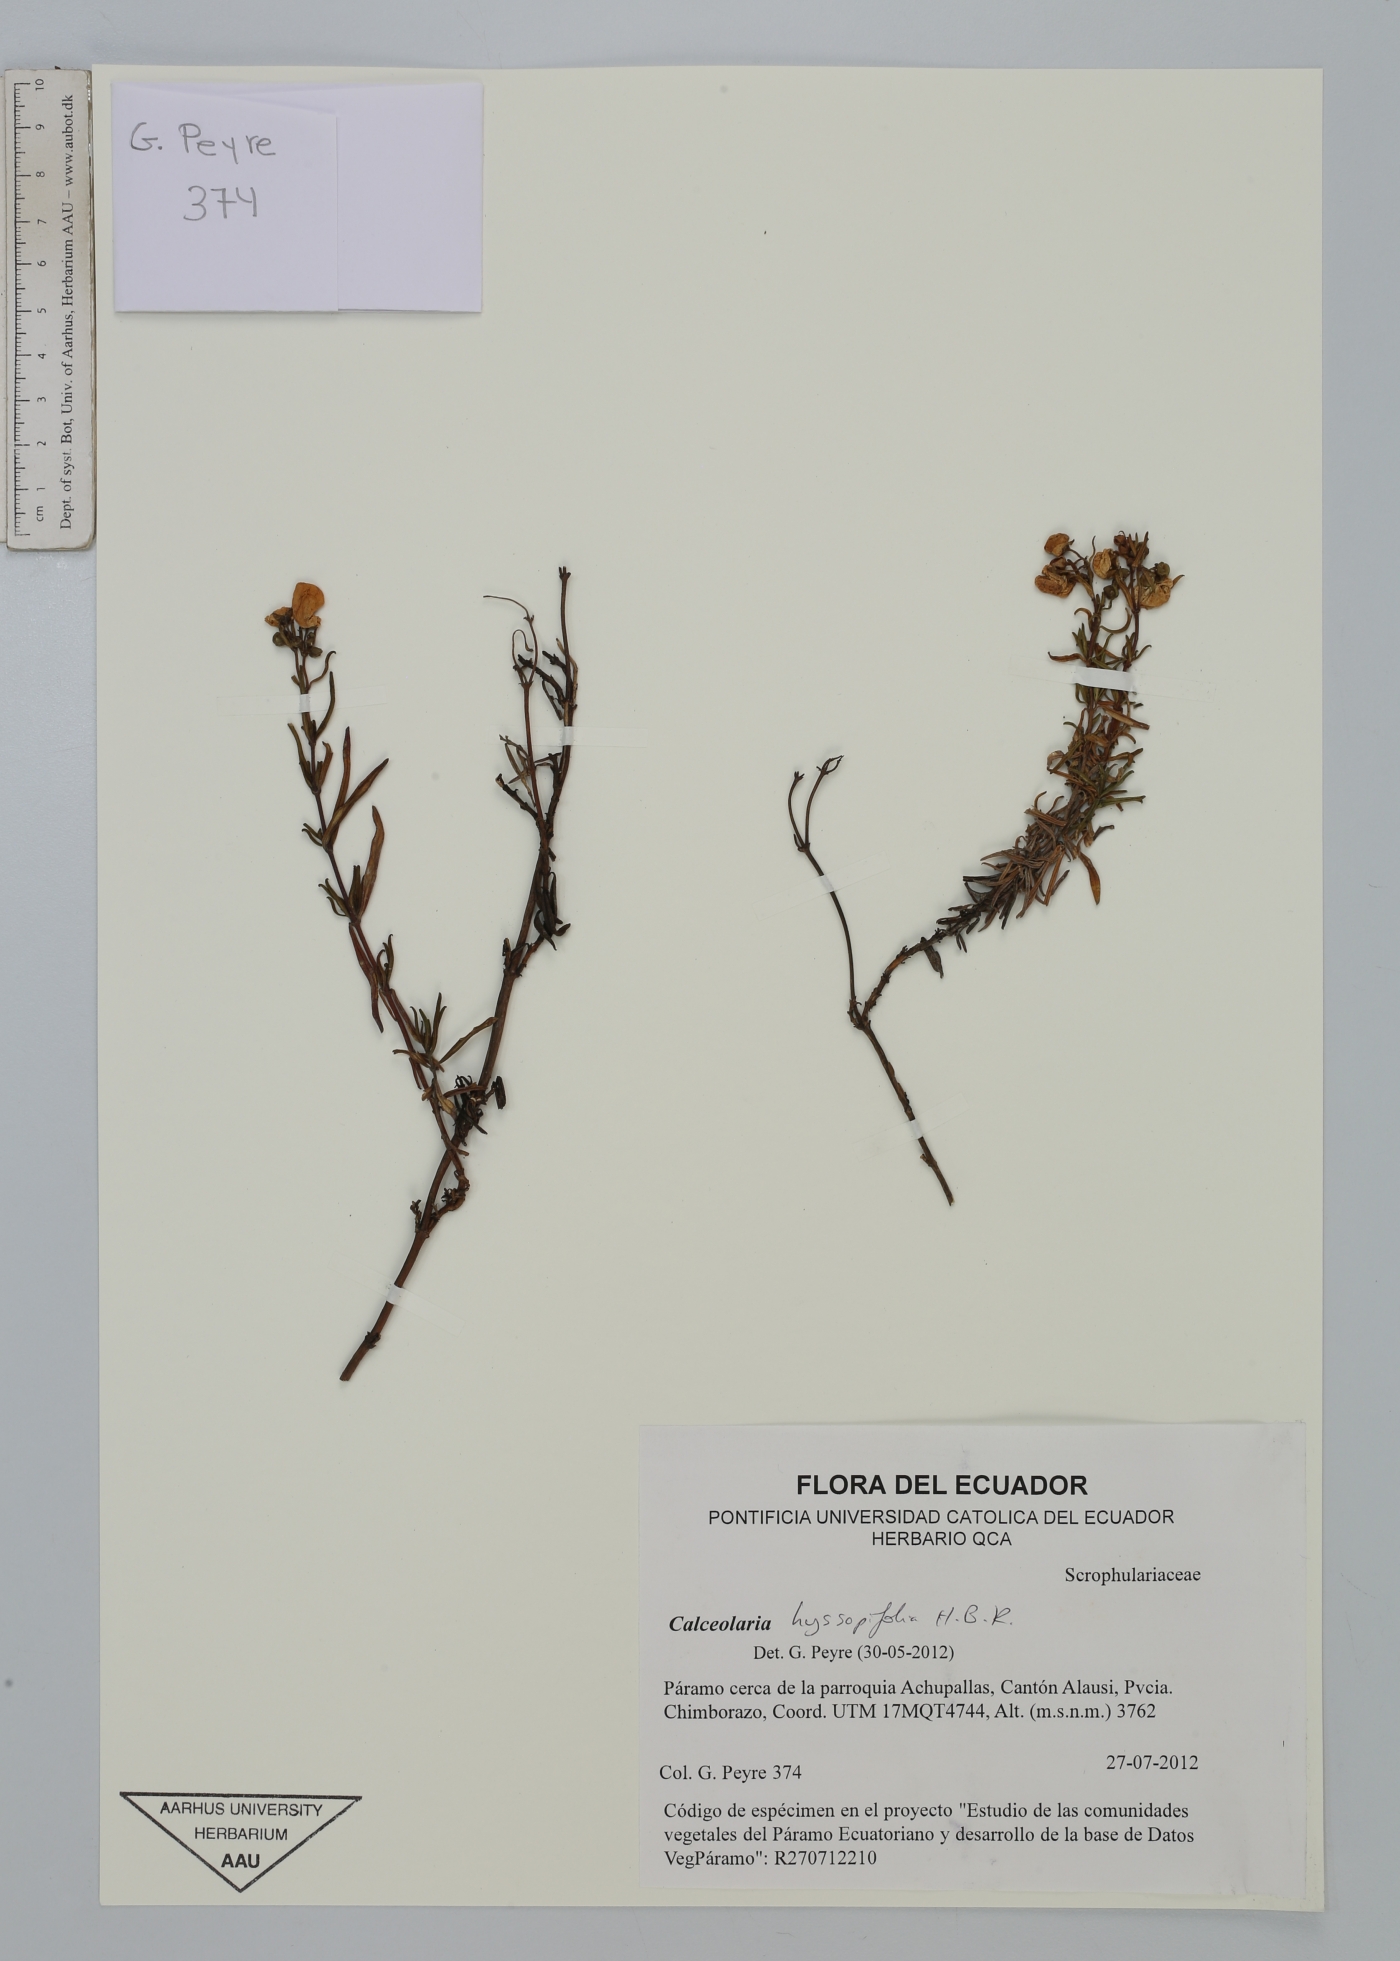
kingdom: Plantae
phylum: Tracheophyta
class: Magnoliopsida
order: Lamiales
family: Calceolariaceae
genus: Calceolaria
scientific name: Calceolaria hyssopifolia
